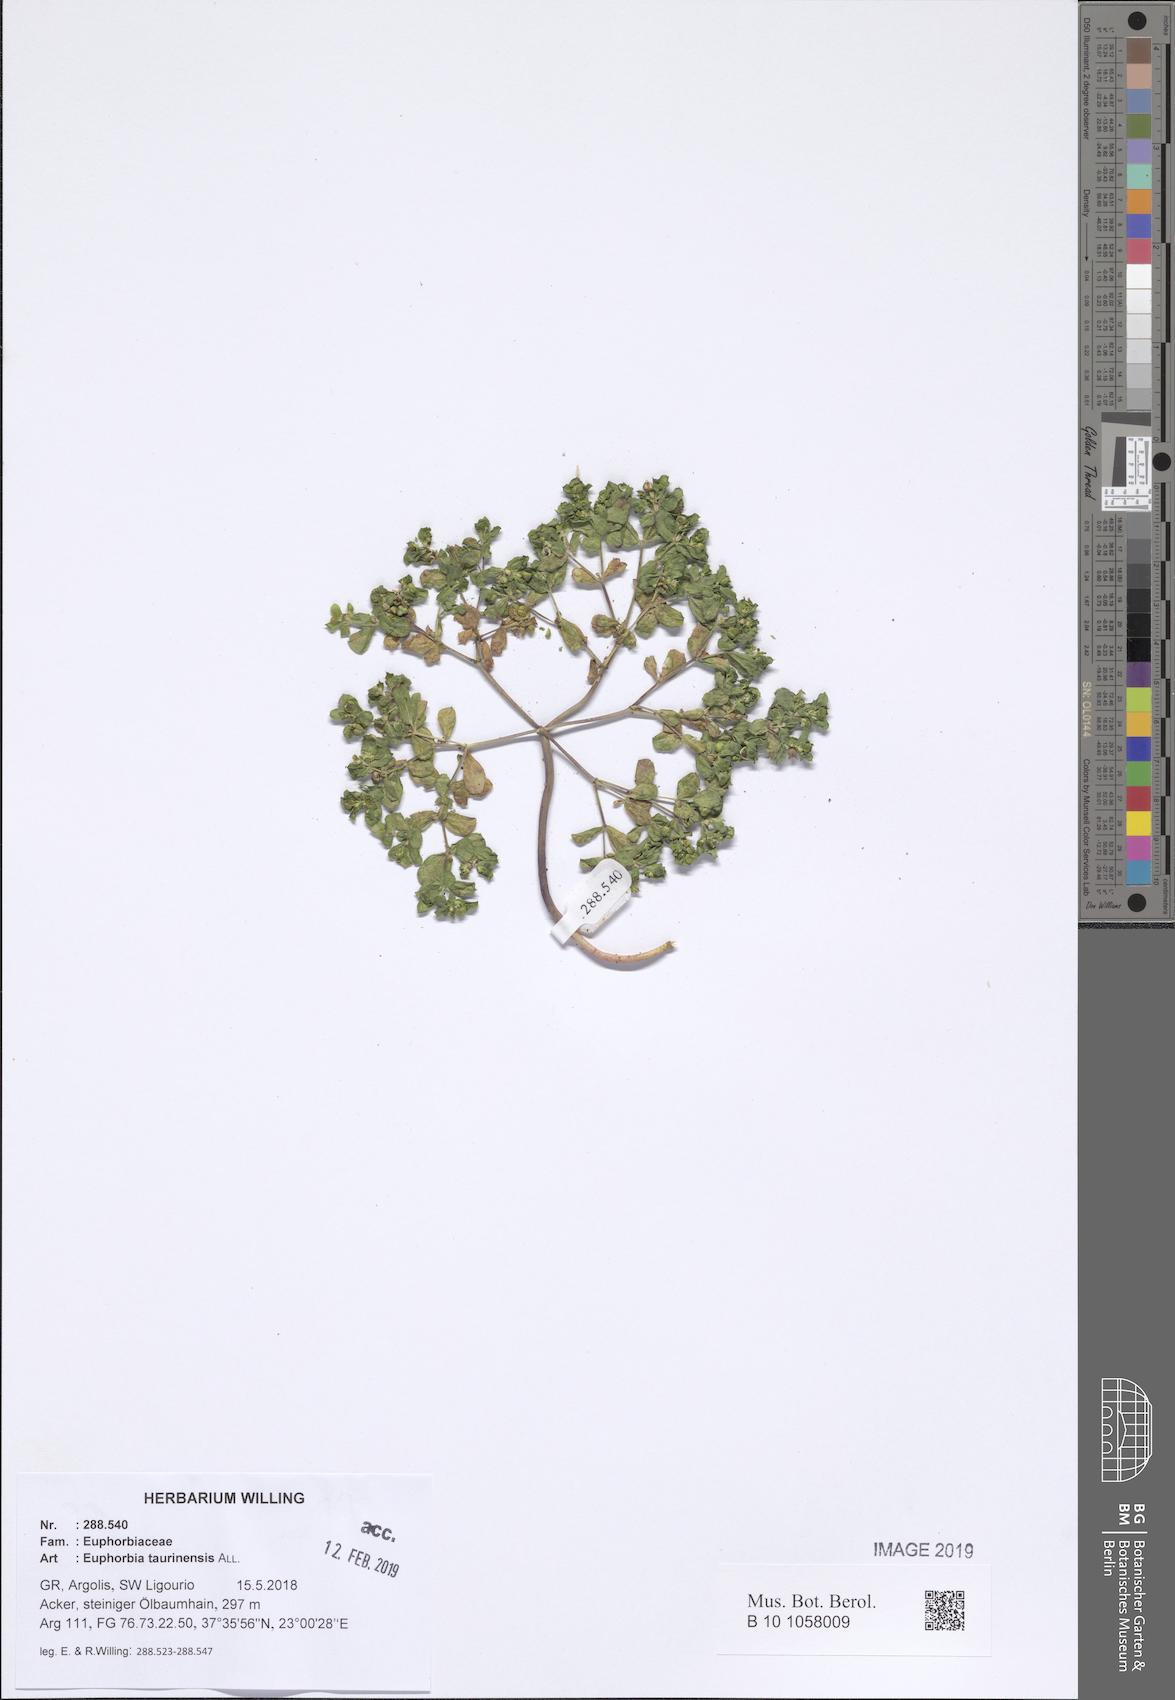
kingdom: Plantae
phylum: Tracheophyta
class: Magnoliopsida
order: Malpighiales
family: Euphorbiaceae
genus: Euphorbia
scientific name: Euphorbia taurinensis
